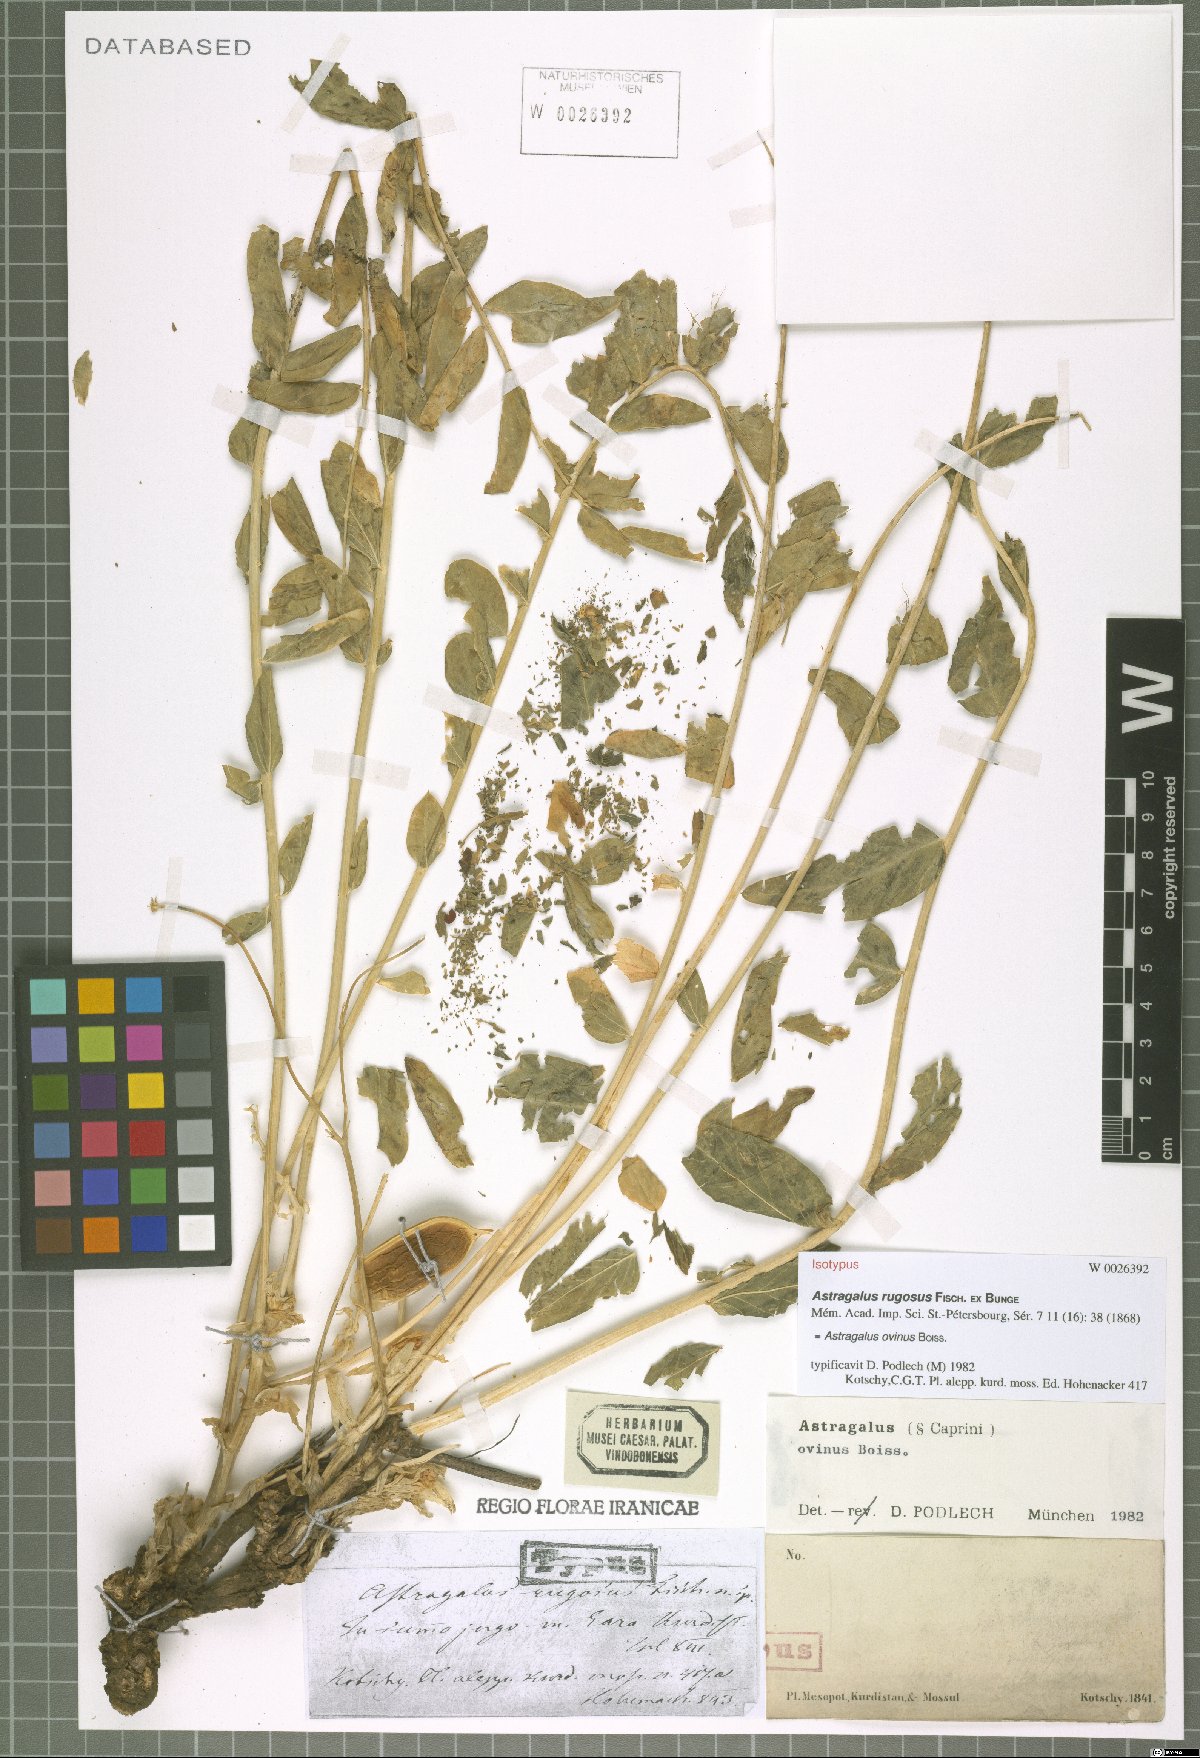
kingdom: Plantae
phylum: Tracheophyta
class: Magnoliopsida
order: Fabales
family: Fabaceae
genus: Astragalus
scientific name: Astragalus ovinus
